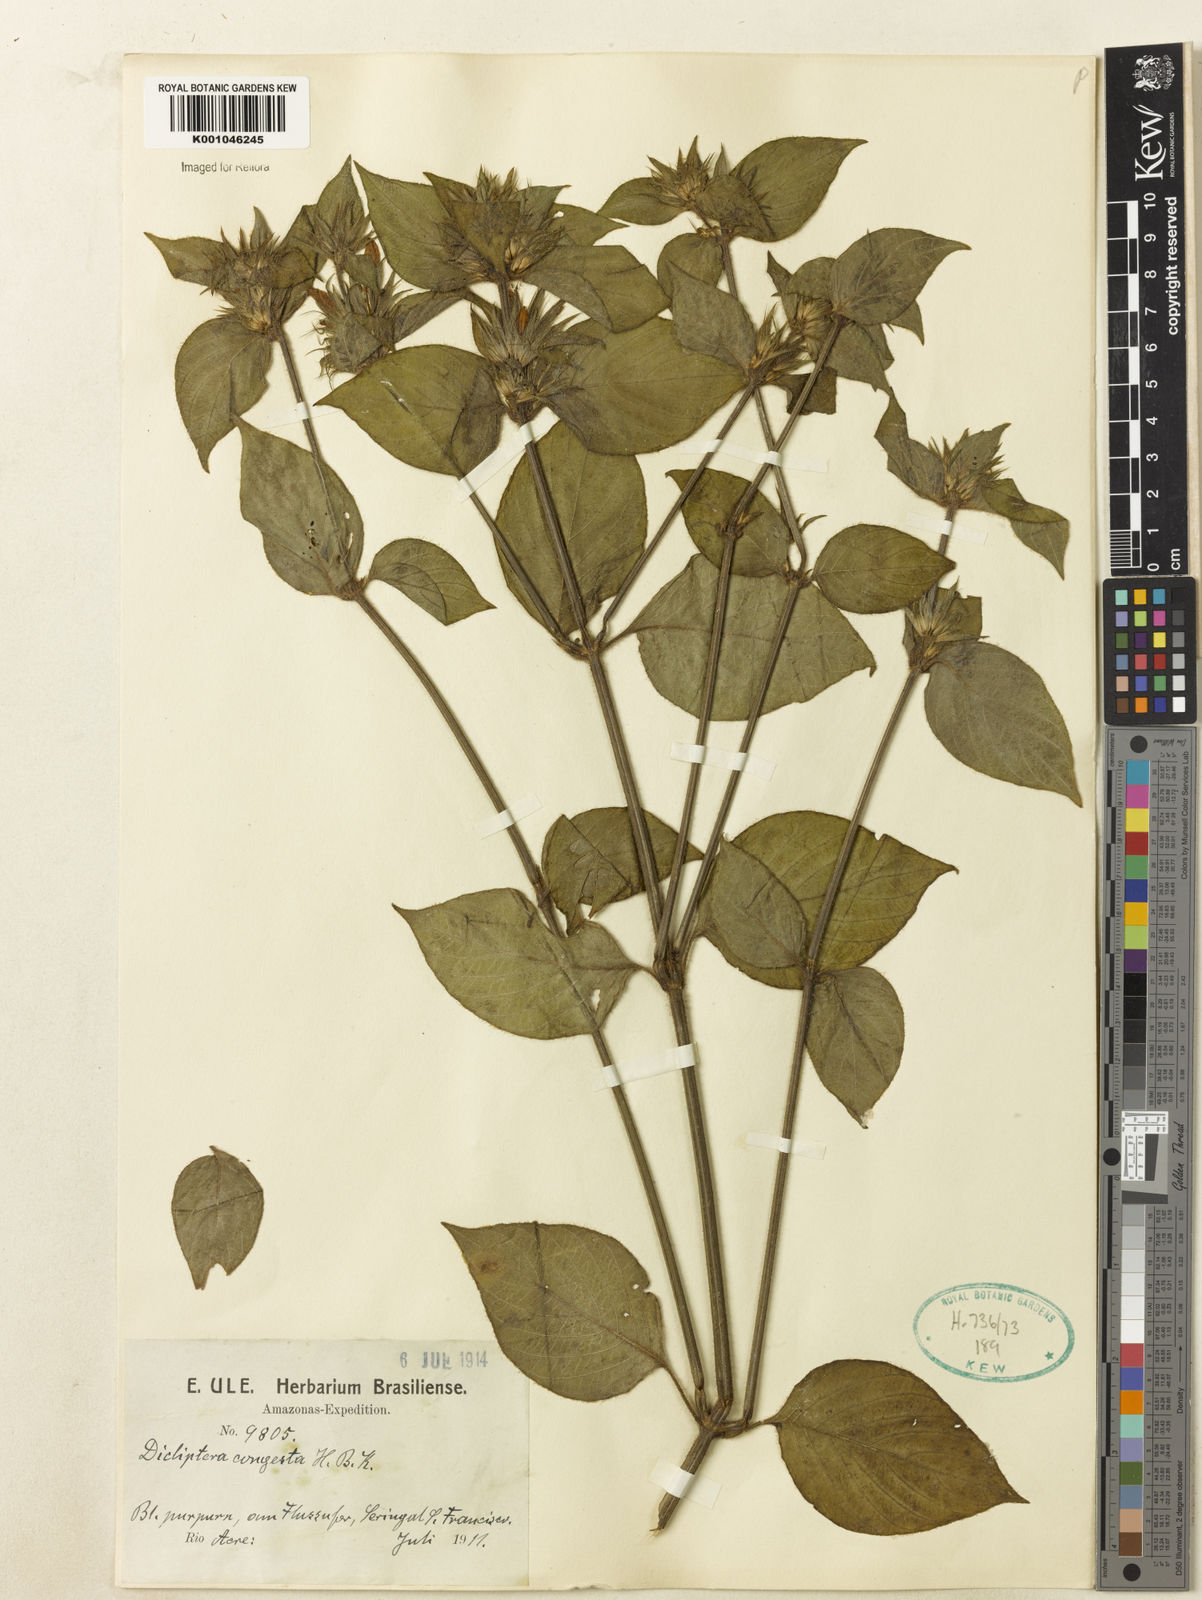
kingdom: Plantae
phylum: Tracheophyta
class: Magnoliopsida
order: Lamiales
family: Acanthaceae
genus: Dicliptera
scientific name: Dicliptera congesta
